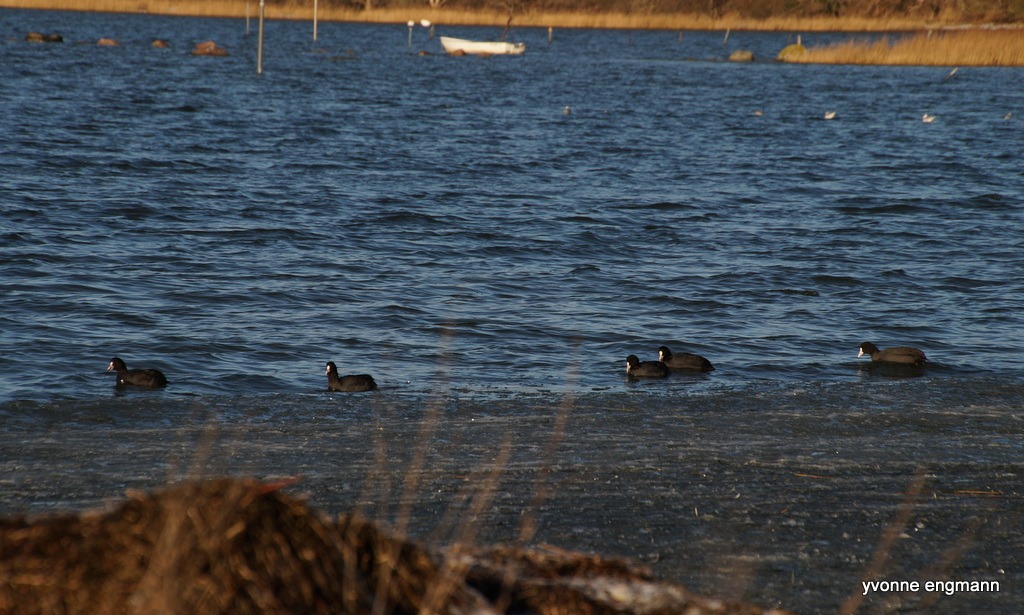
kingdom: Animalia
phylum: Chordata
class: Aves
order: Gruiformes
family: Rallidae
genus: Fulica
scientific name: Fulica atra
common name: Blishøne
